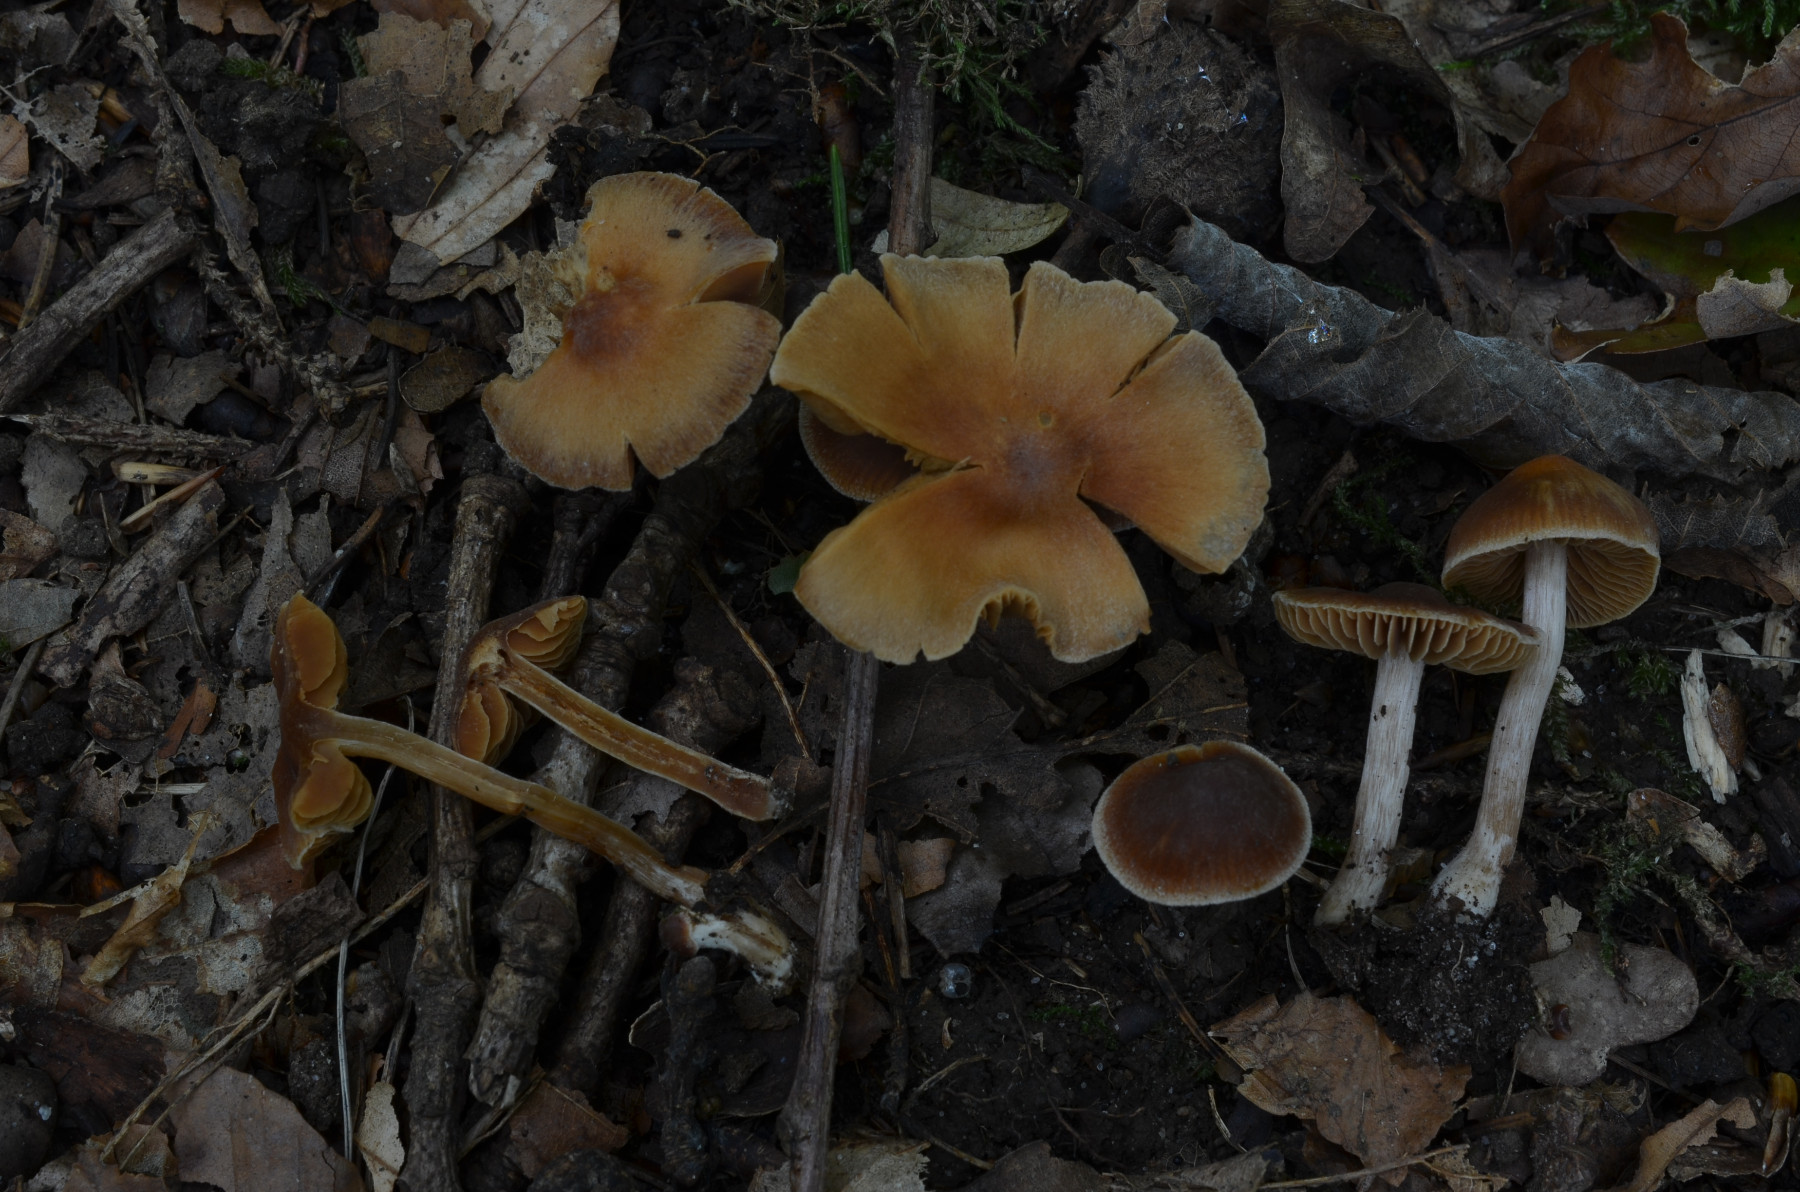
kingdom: Fungi
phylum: Basidiomycota
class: Agaricomycetes
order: Agaricales
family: Cortinariaceae
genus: Cortinarius
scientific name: Cortinarius incisus
